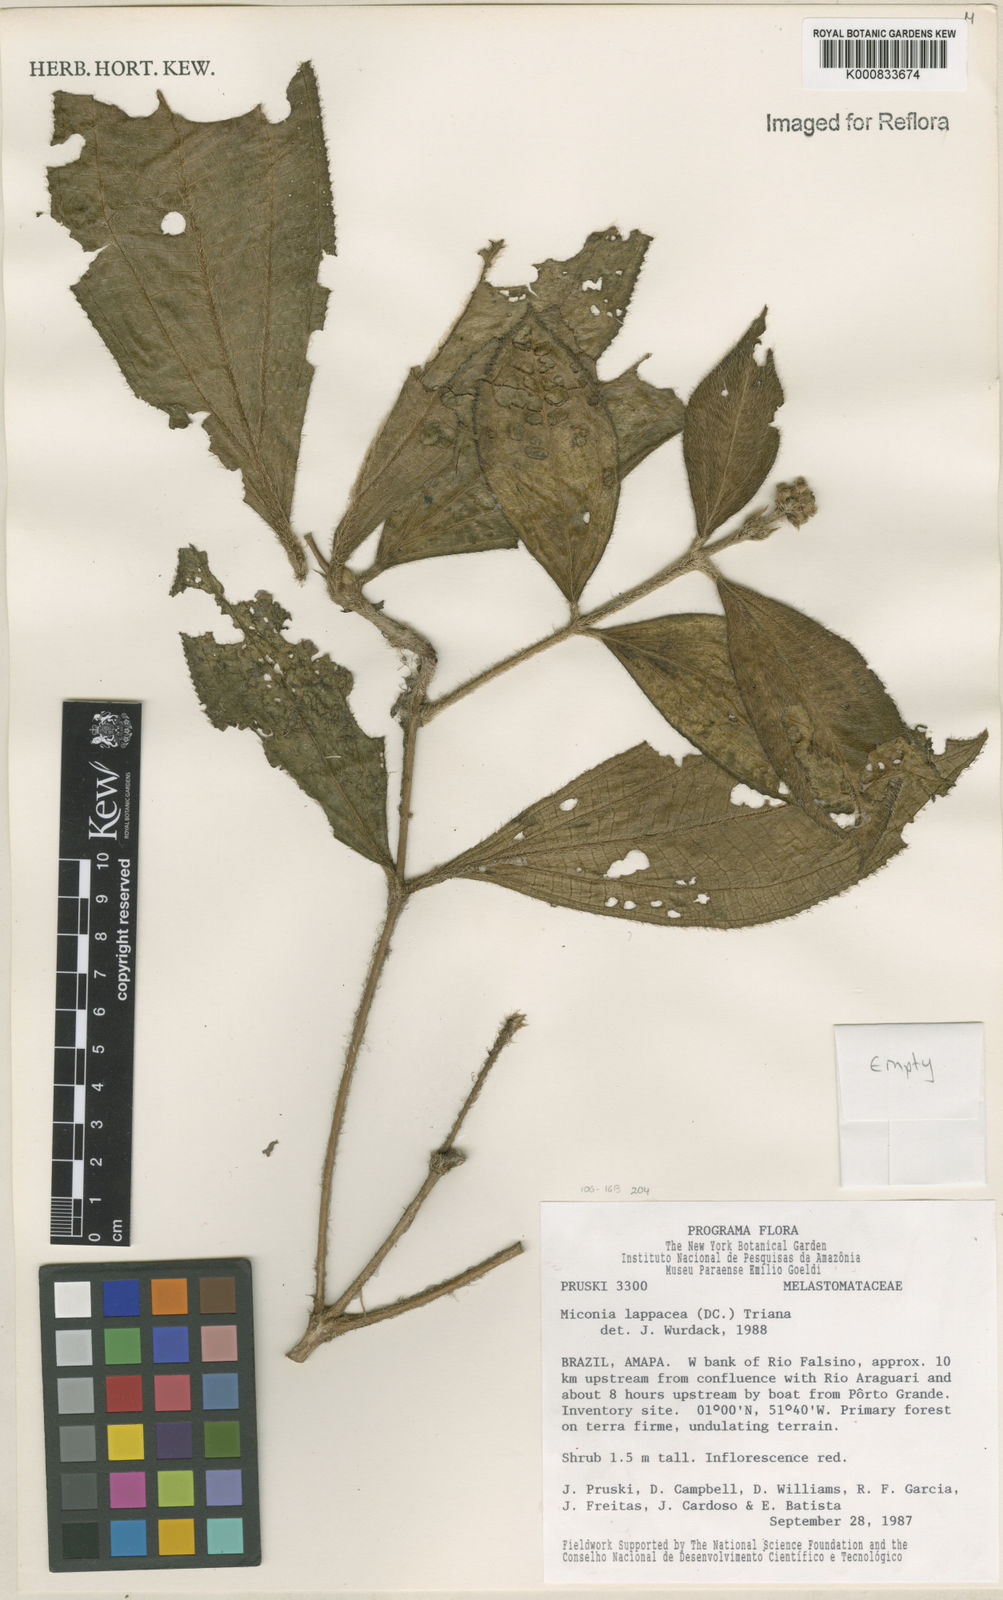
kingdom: Plantae
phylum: Tracheophyta
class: Magnoliopsida
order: Myrtales
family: Melastomataceae
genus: Miconia
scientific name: Miconia lappacea
